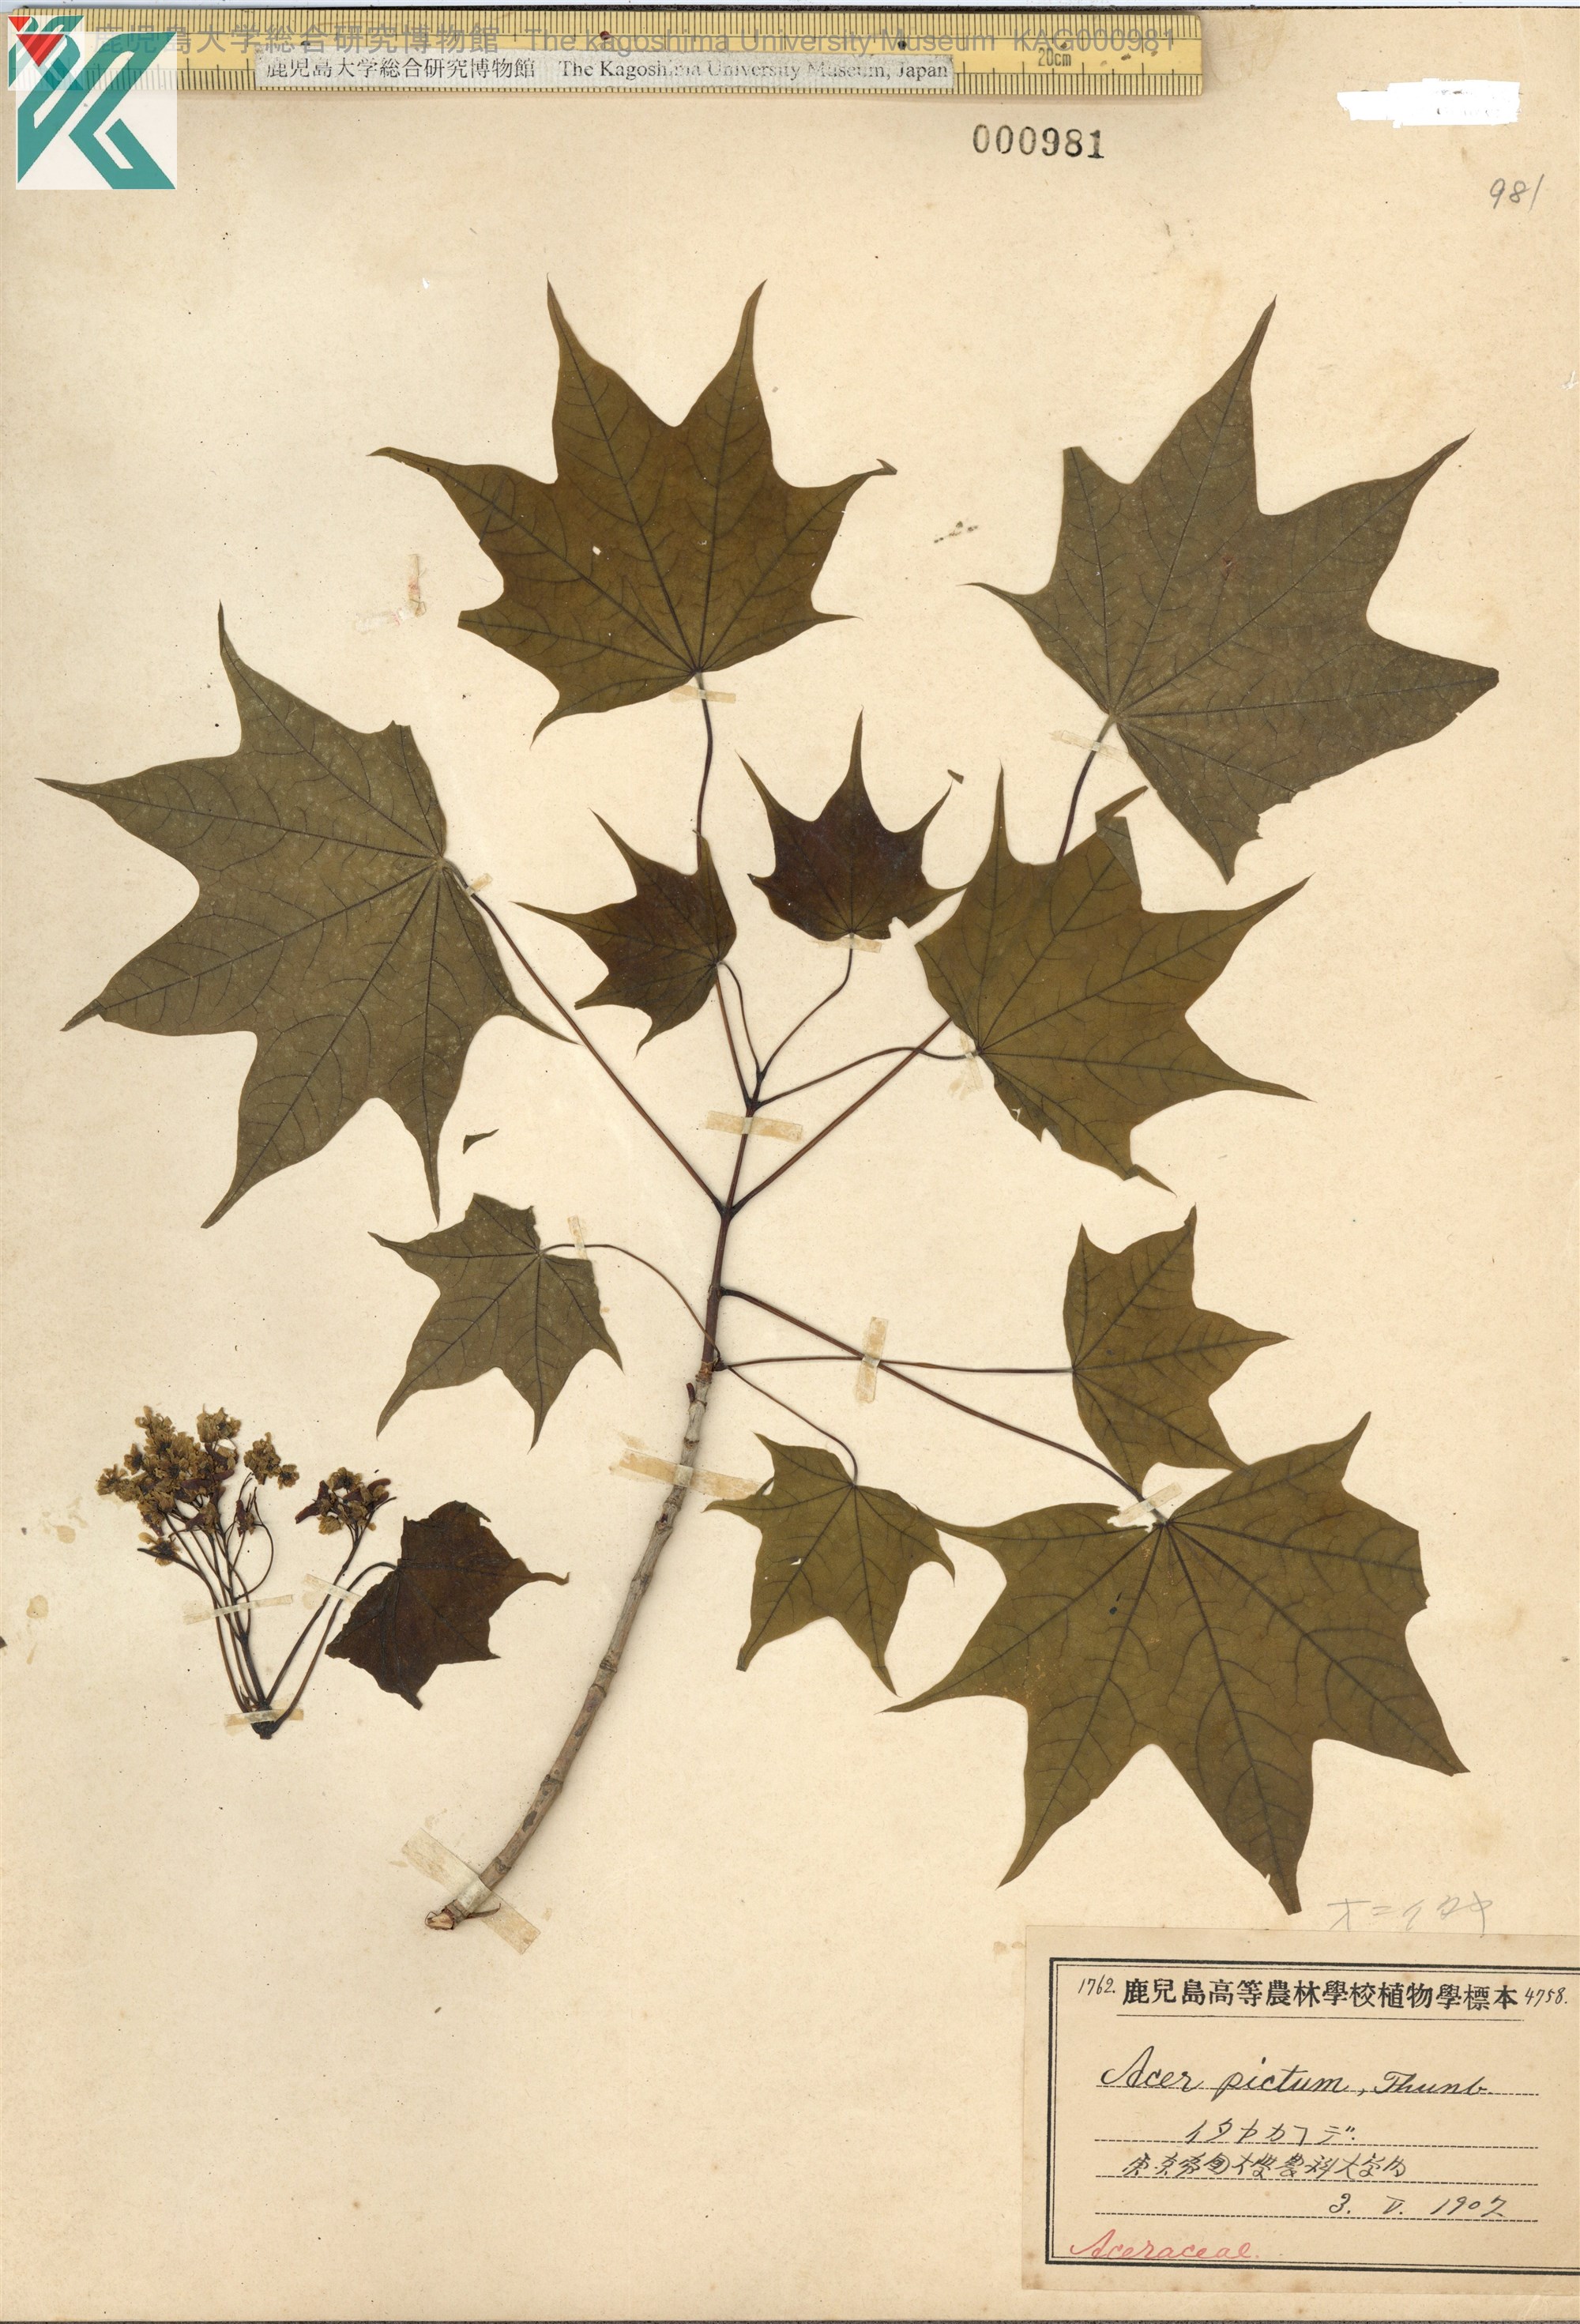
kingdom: Plantae
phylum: Tracheophyta
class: Magnoliopsida
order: Sapindales
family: Sapindaceae
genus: Acer
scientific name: Acer pictum
